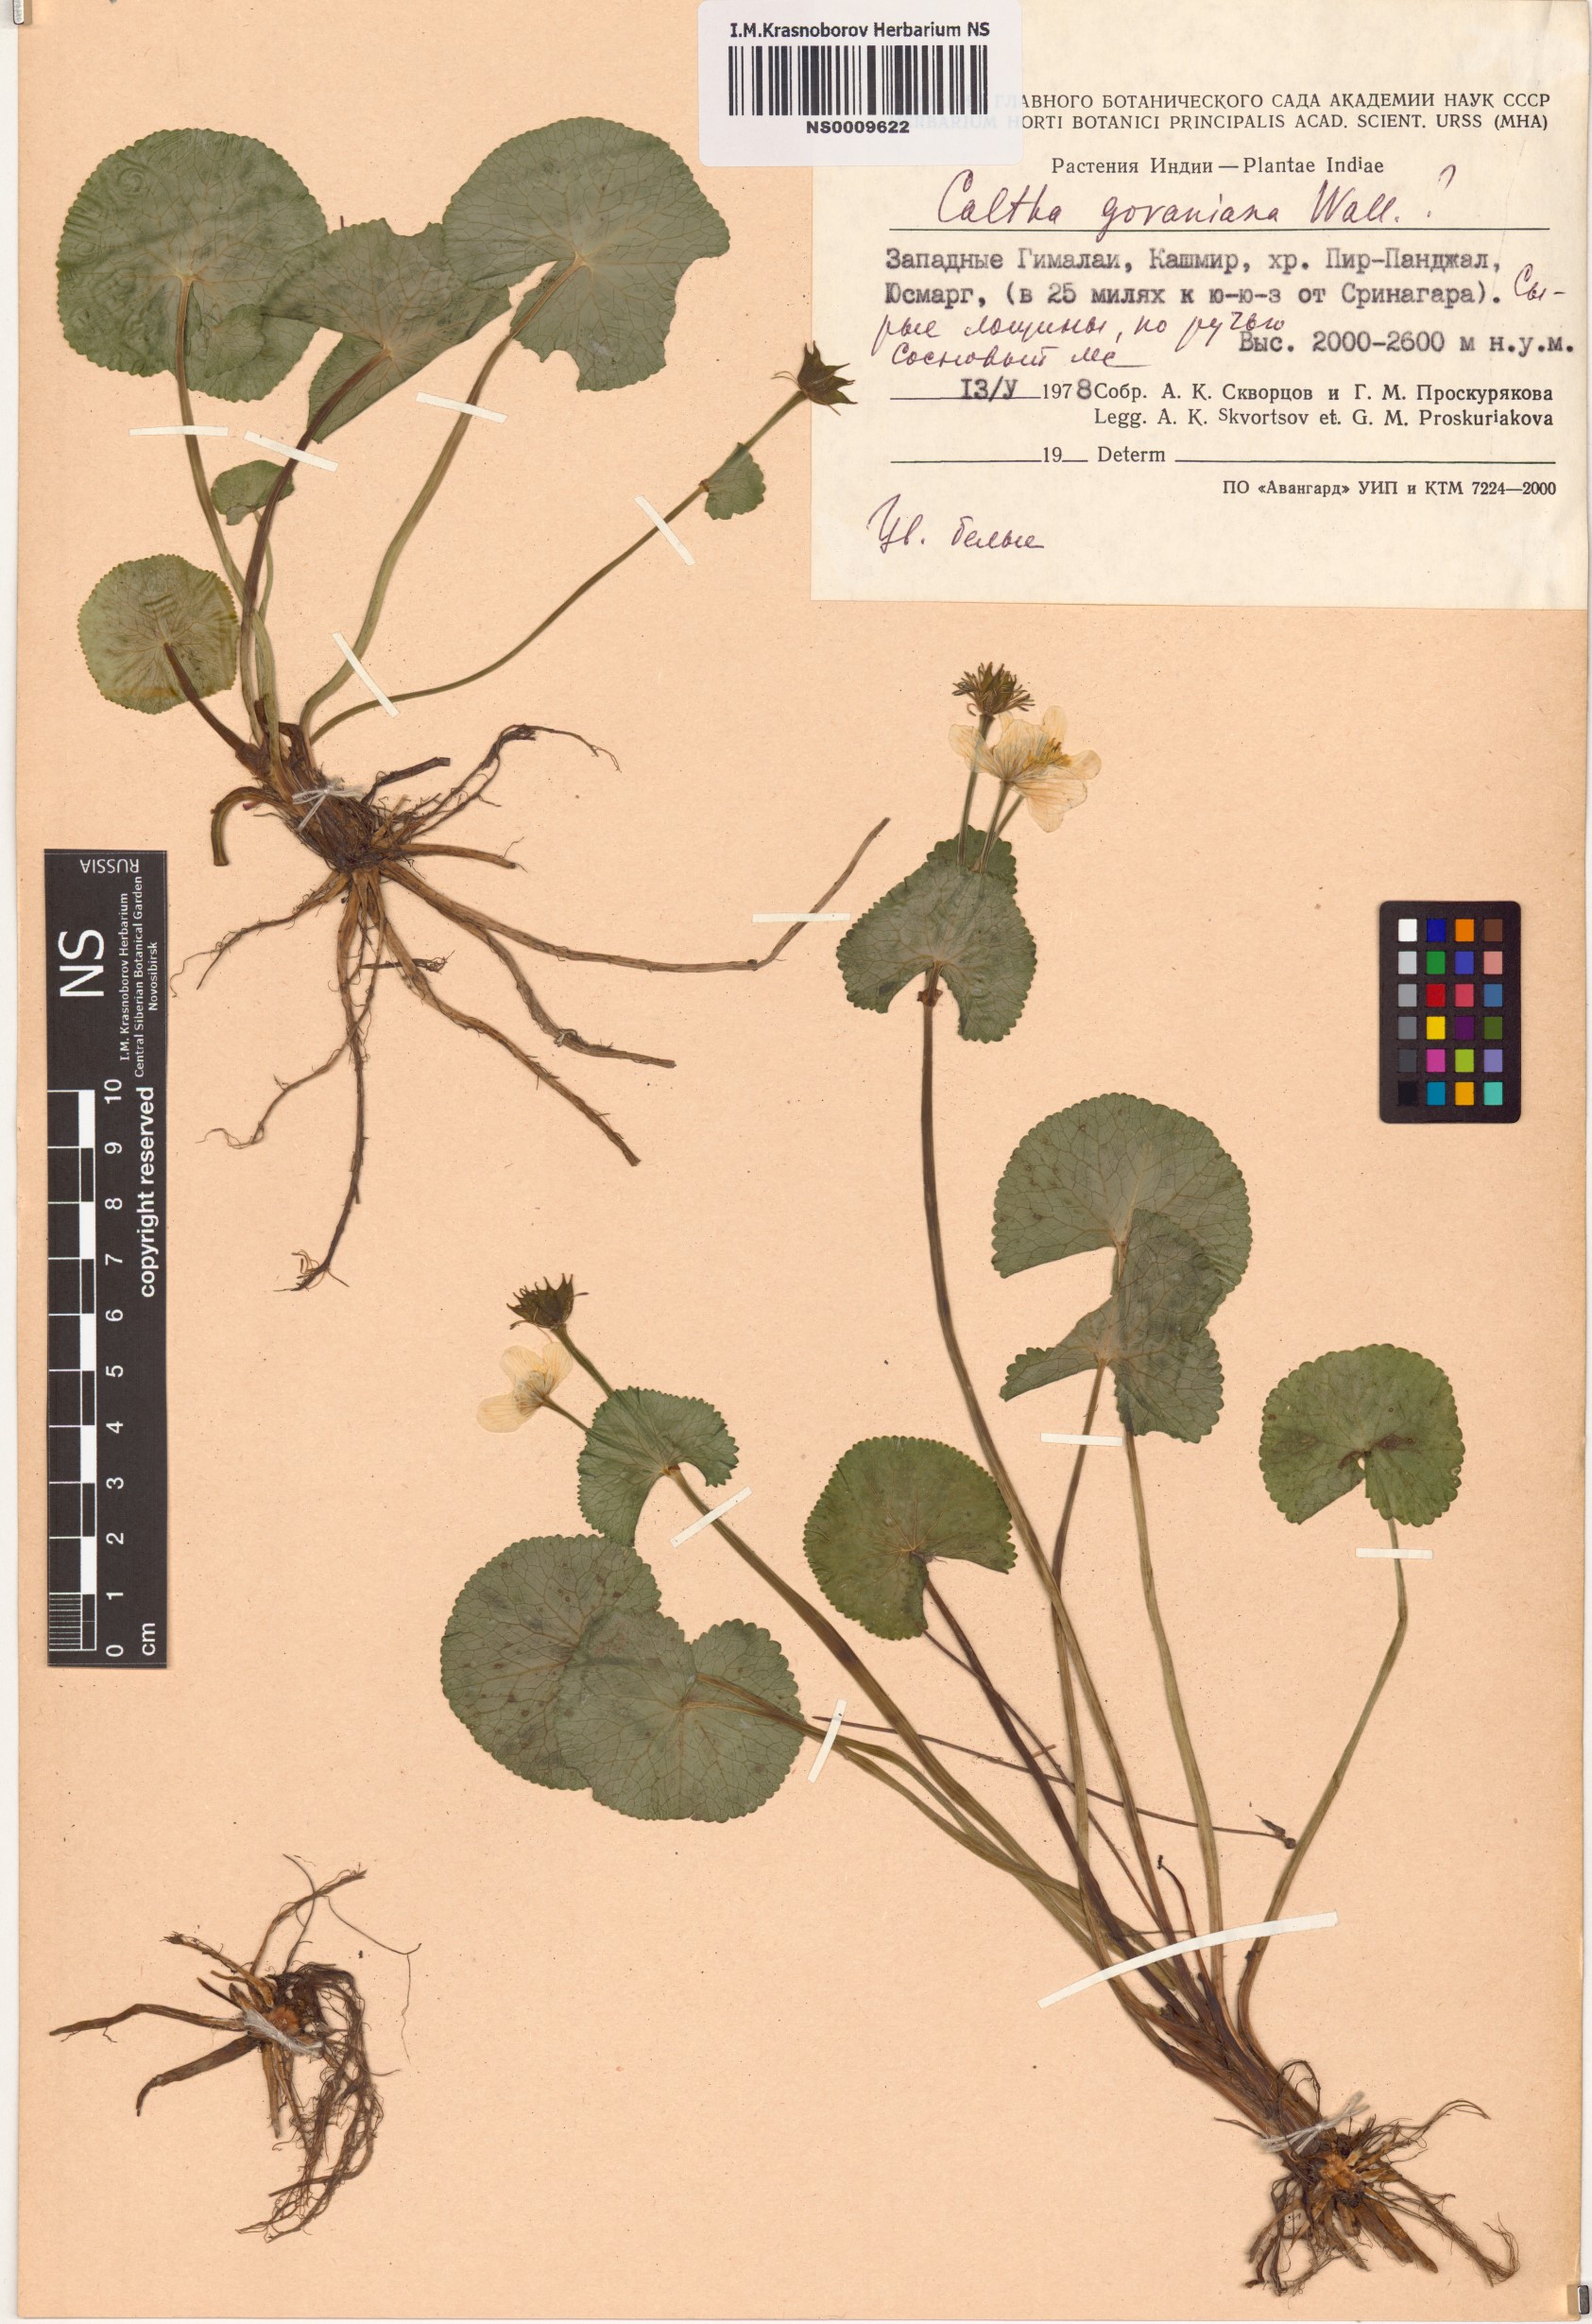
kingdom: Plantae
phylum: Tracheophyta
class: Magnoliopsida
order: Ranunculales
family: Ranunculaceae
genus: Caltha
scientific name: Caltha alba
